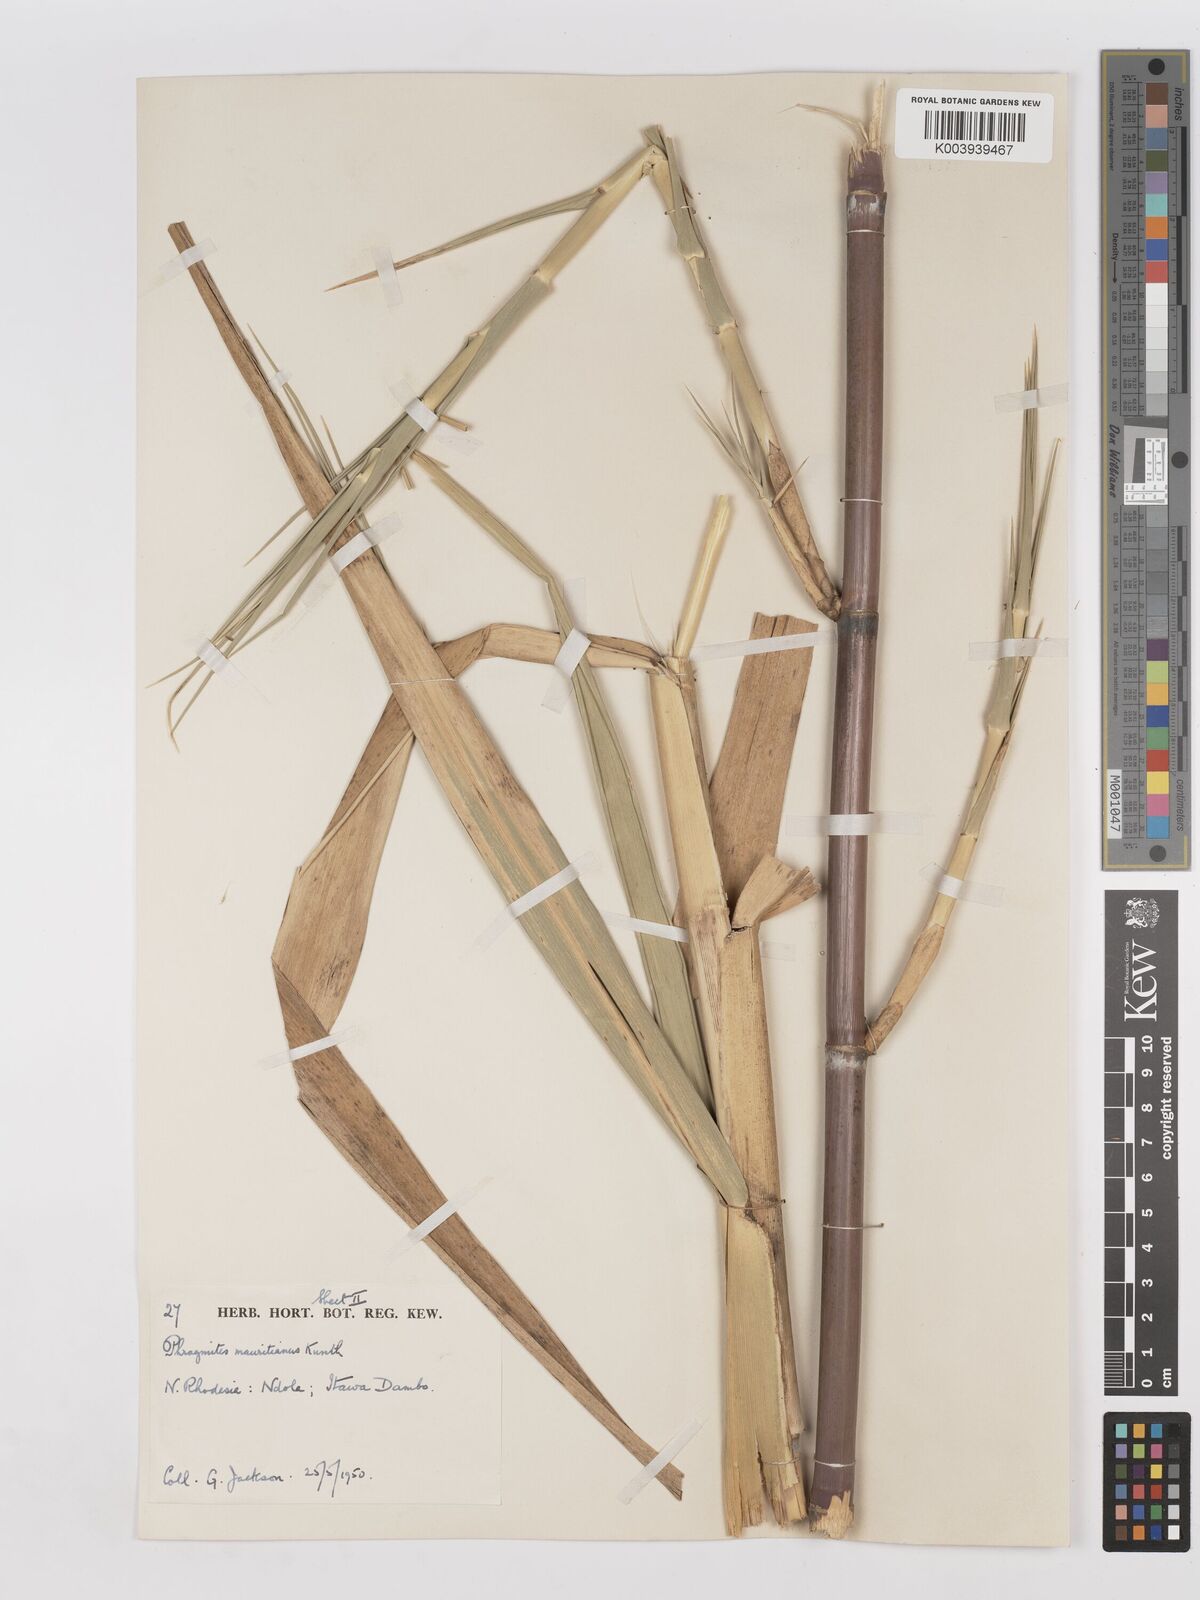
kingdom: Plantae
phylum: Tracheophyta
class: Liliopsida
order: Poales
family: Poaceae
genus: Phragmites
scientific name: Phragmites mauritianus
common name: Reed grass
